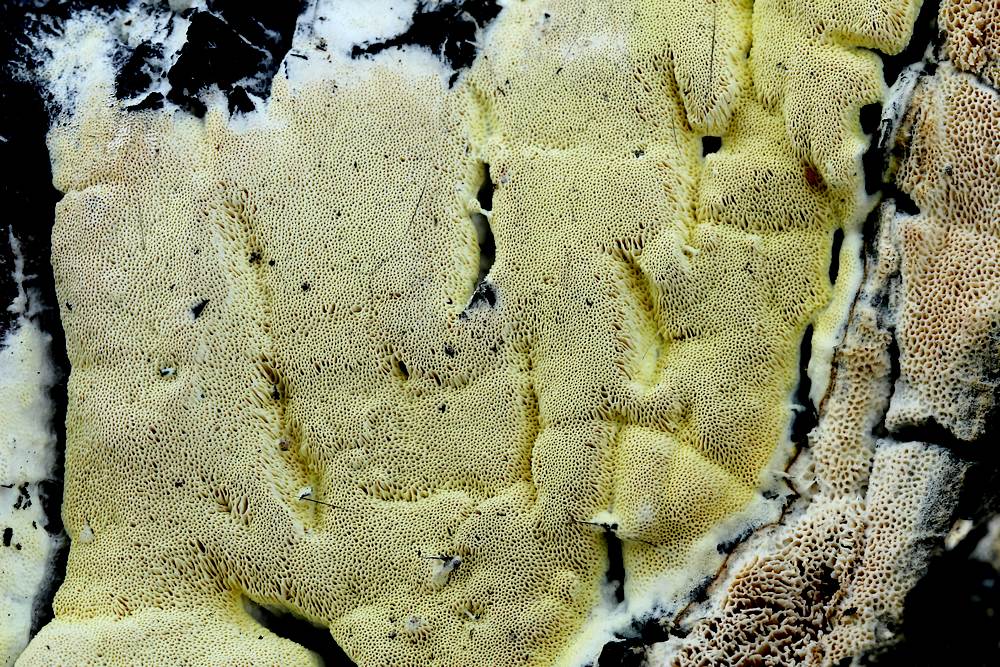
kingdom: Fungi
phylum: Basidiomycota
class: Agaricomycetes
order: Polyporales
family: Fomitopsidaceae
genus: Daedalea
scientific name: Daedalea xantha
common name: gul sejporesvamp
